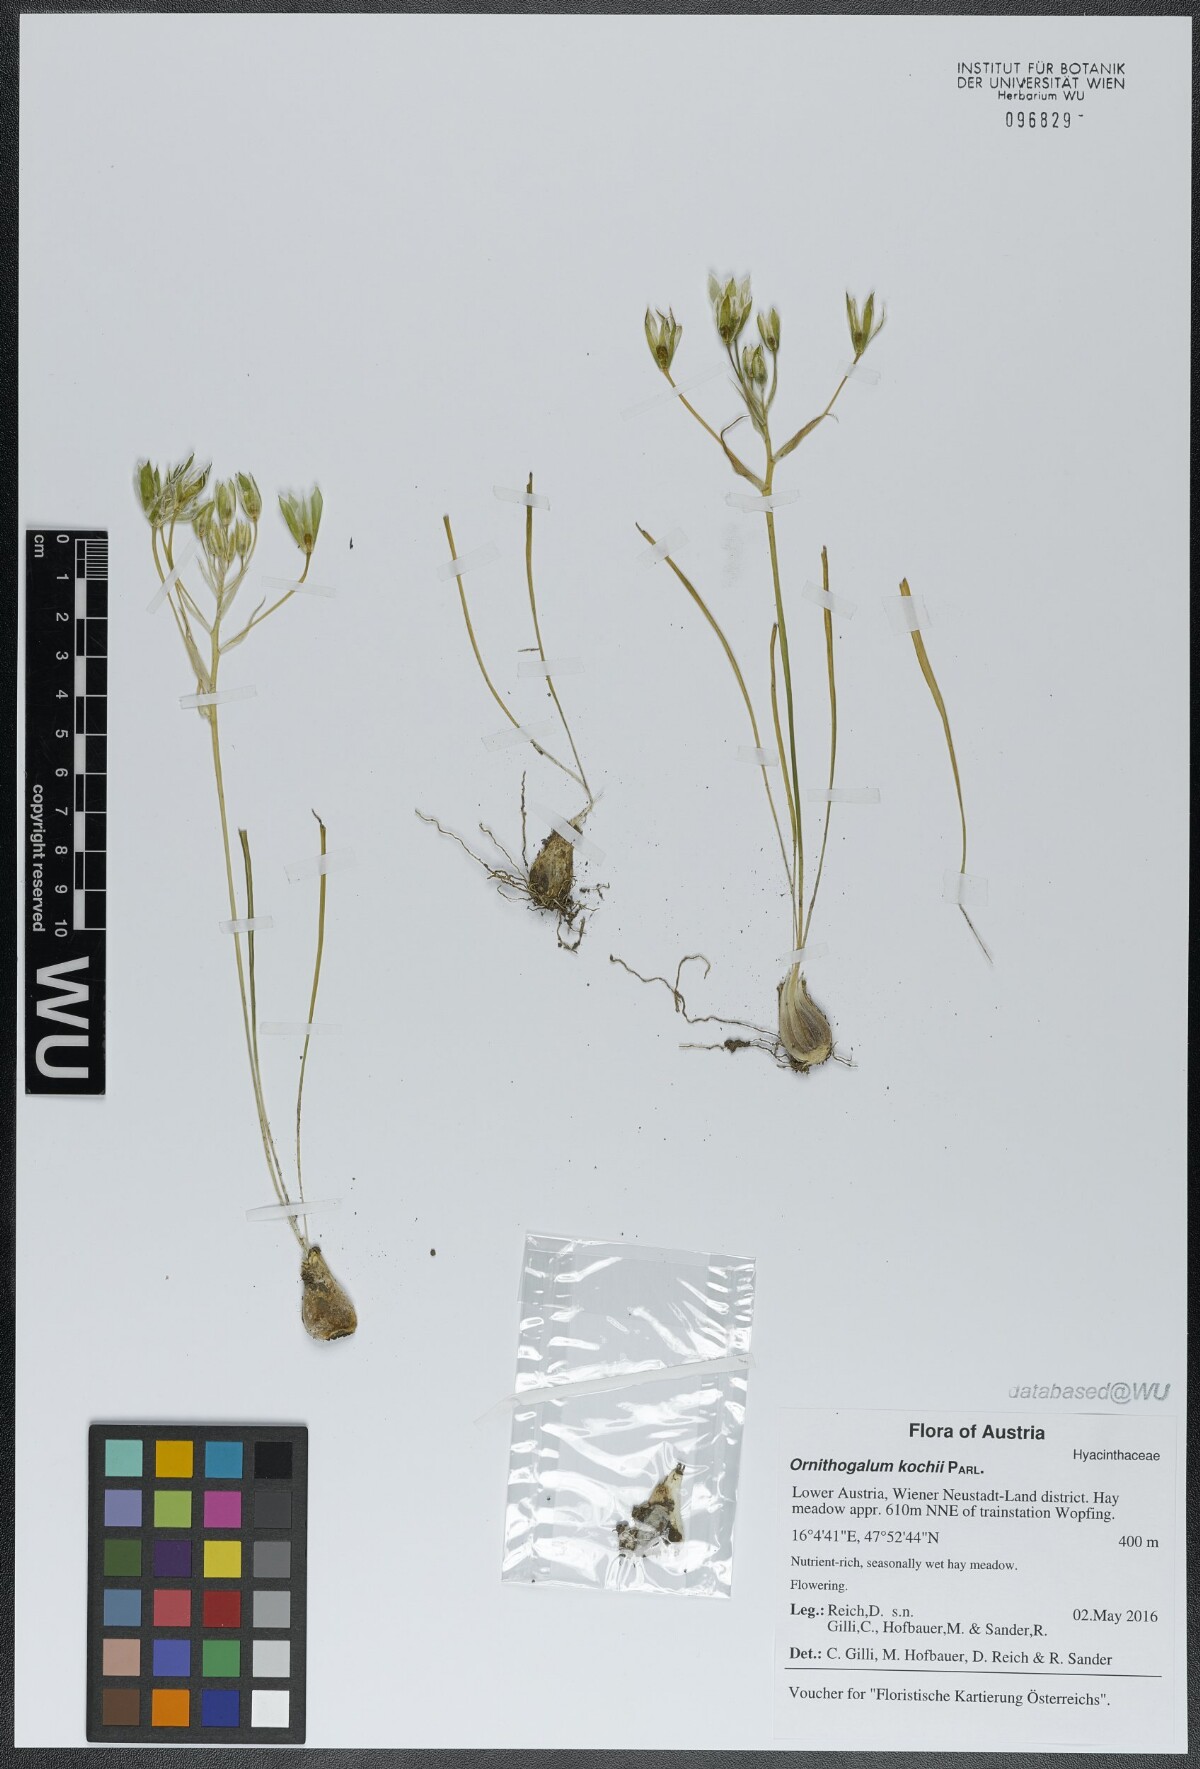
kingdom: Plantae
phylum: Tracheophyta
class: Liliopsida
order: Asparagales
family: Asparagaceae
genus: Ornithogalum
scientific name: Ornithogalum orthophyllum
